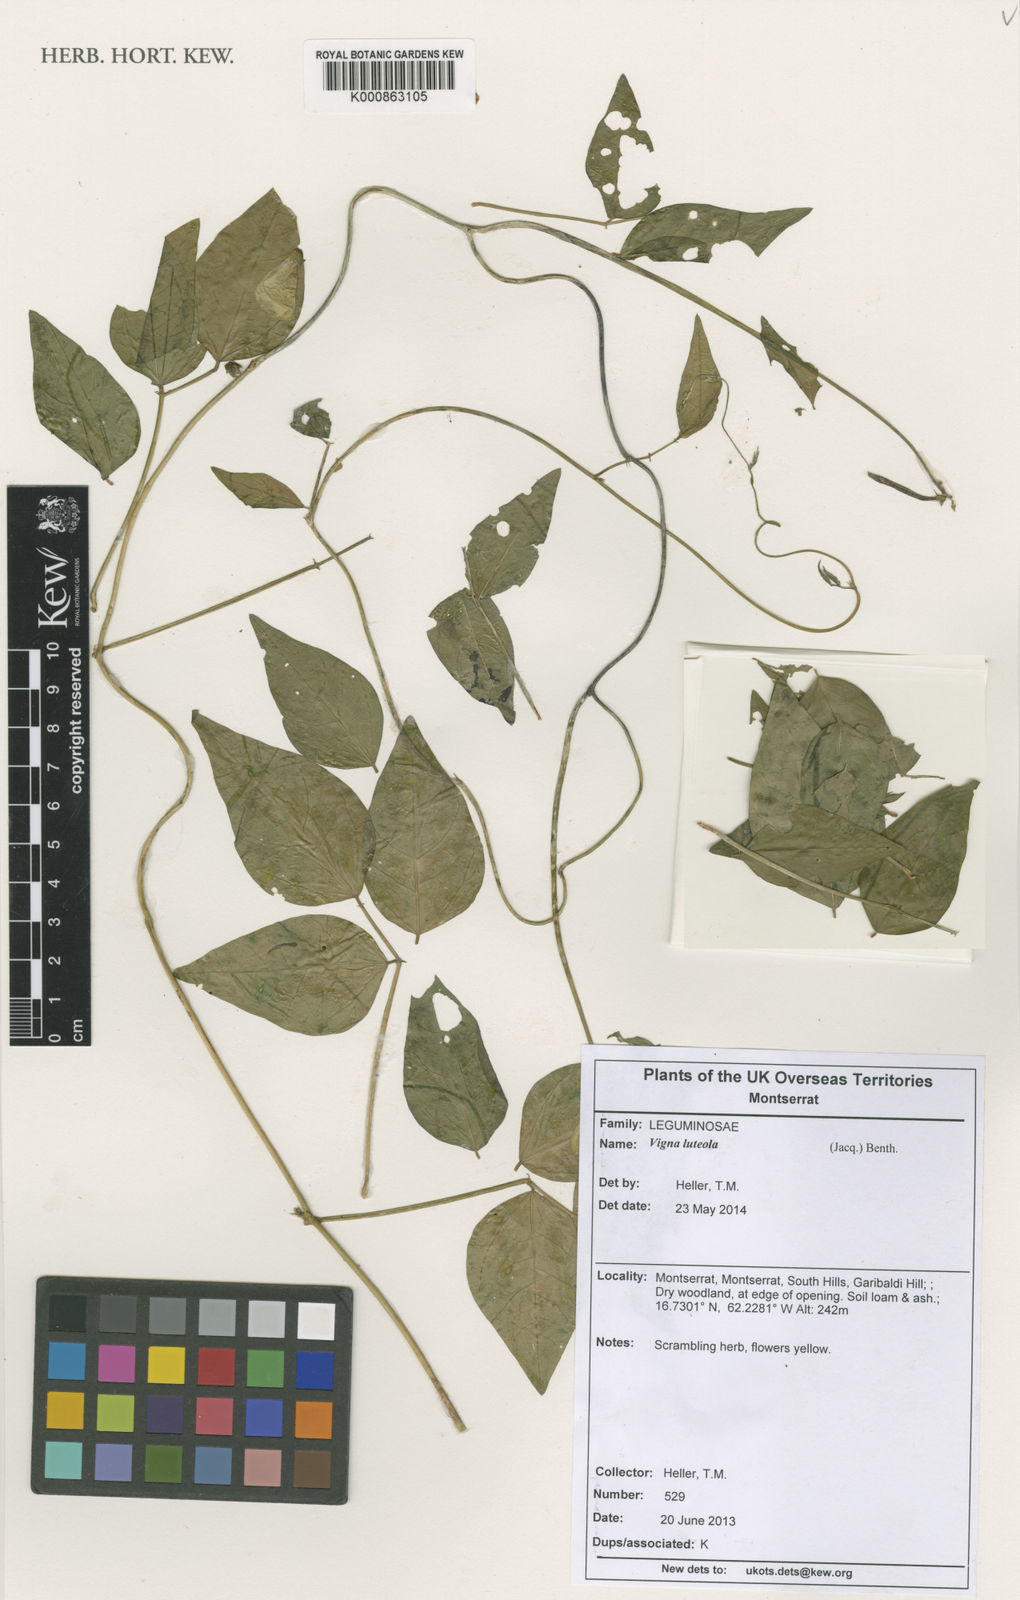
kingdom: Plantae
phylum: Tracheophyta
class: Magnoliopsida
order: Fabales
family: Fabaceae
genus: Vigna
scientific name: Vigna luteola
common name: Hairypod cowpea
